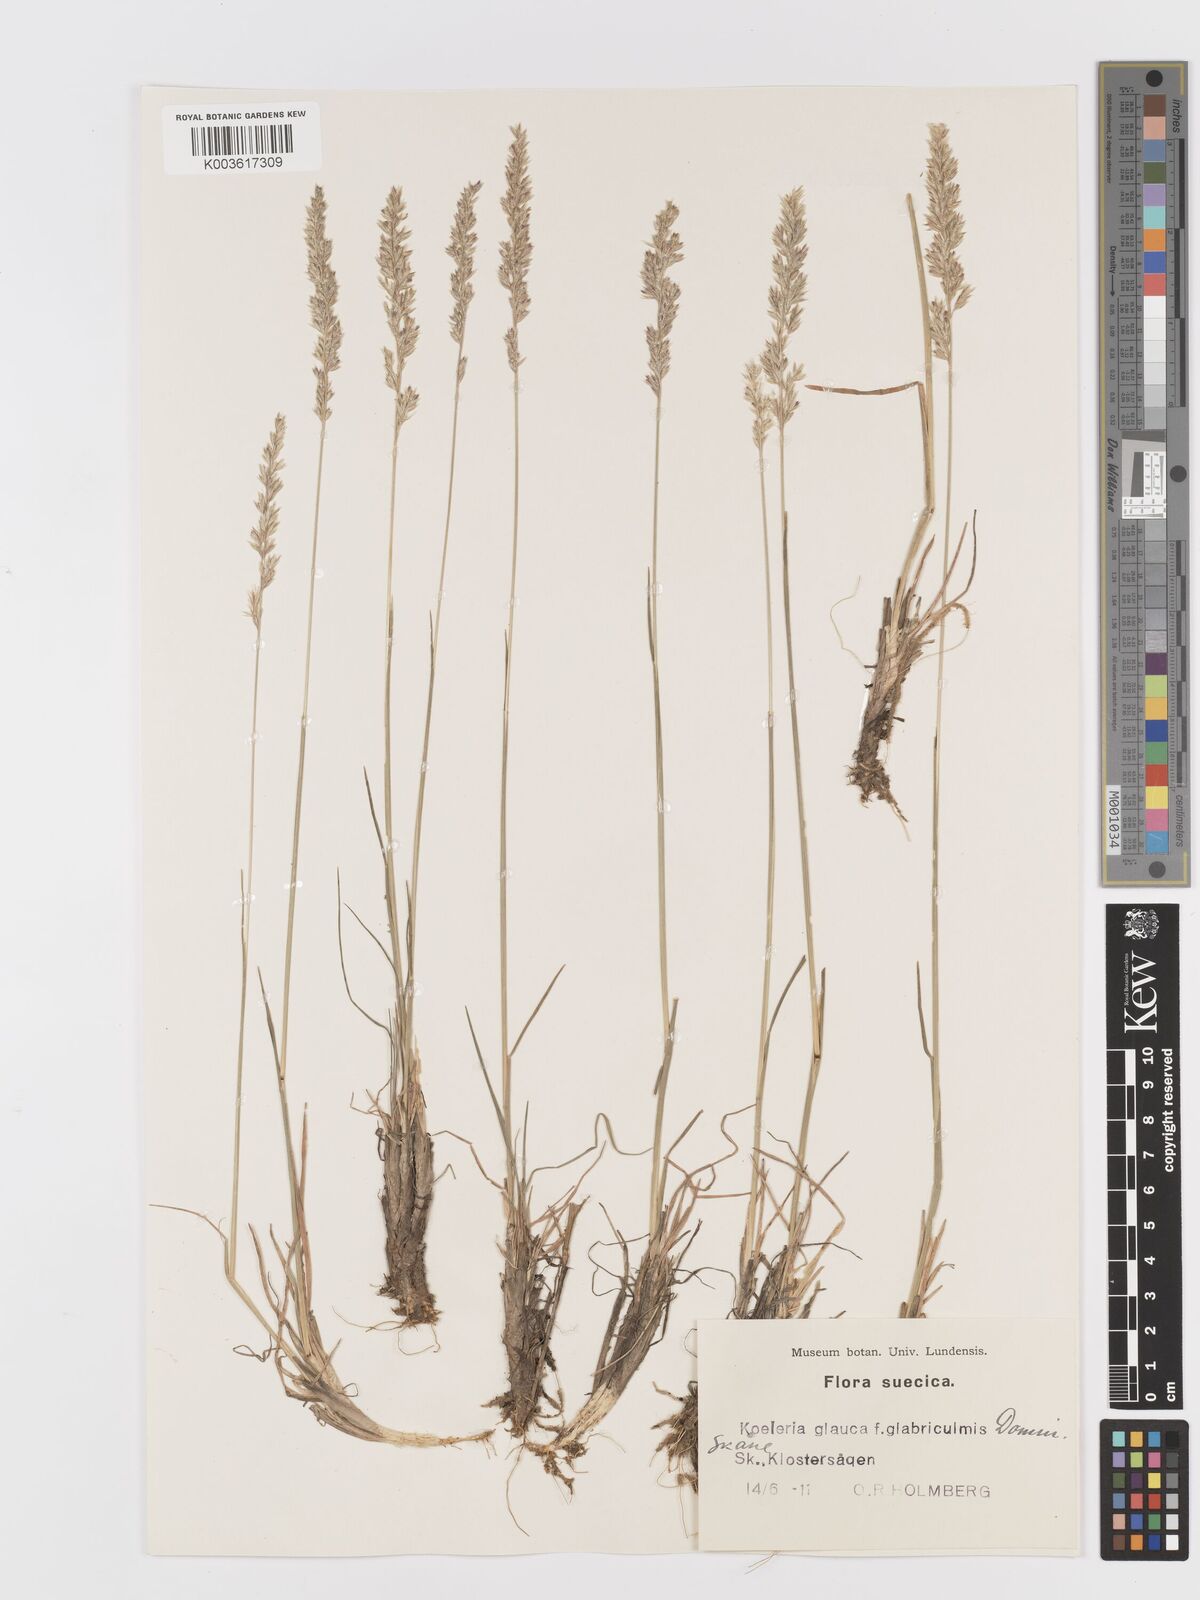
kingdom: Plantae
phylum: Tracheophyta
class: Liliopsida
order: Poales
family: Poaceae
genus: Koeleria
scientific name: Koeleria glauca
